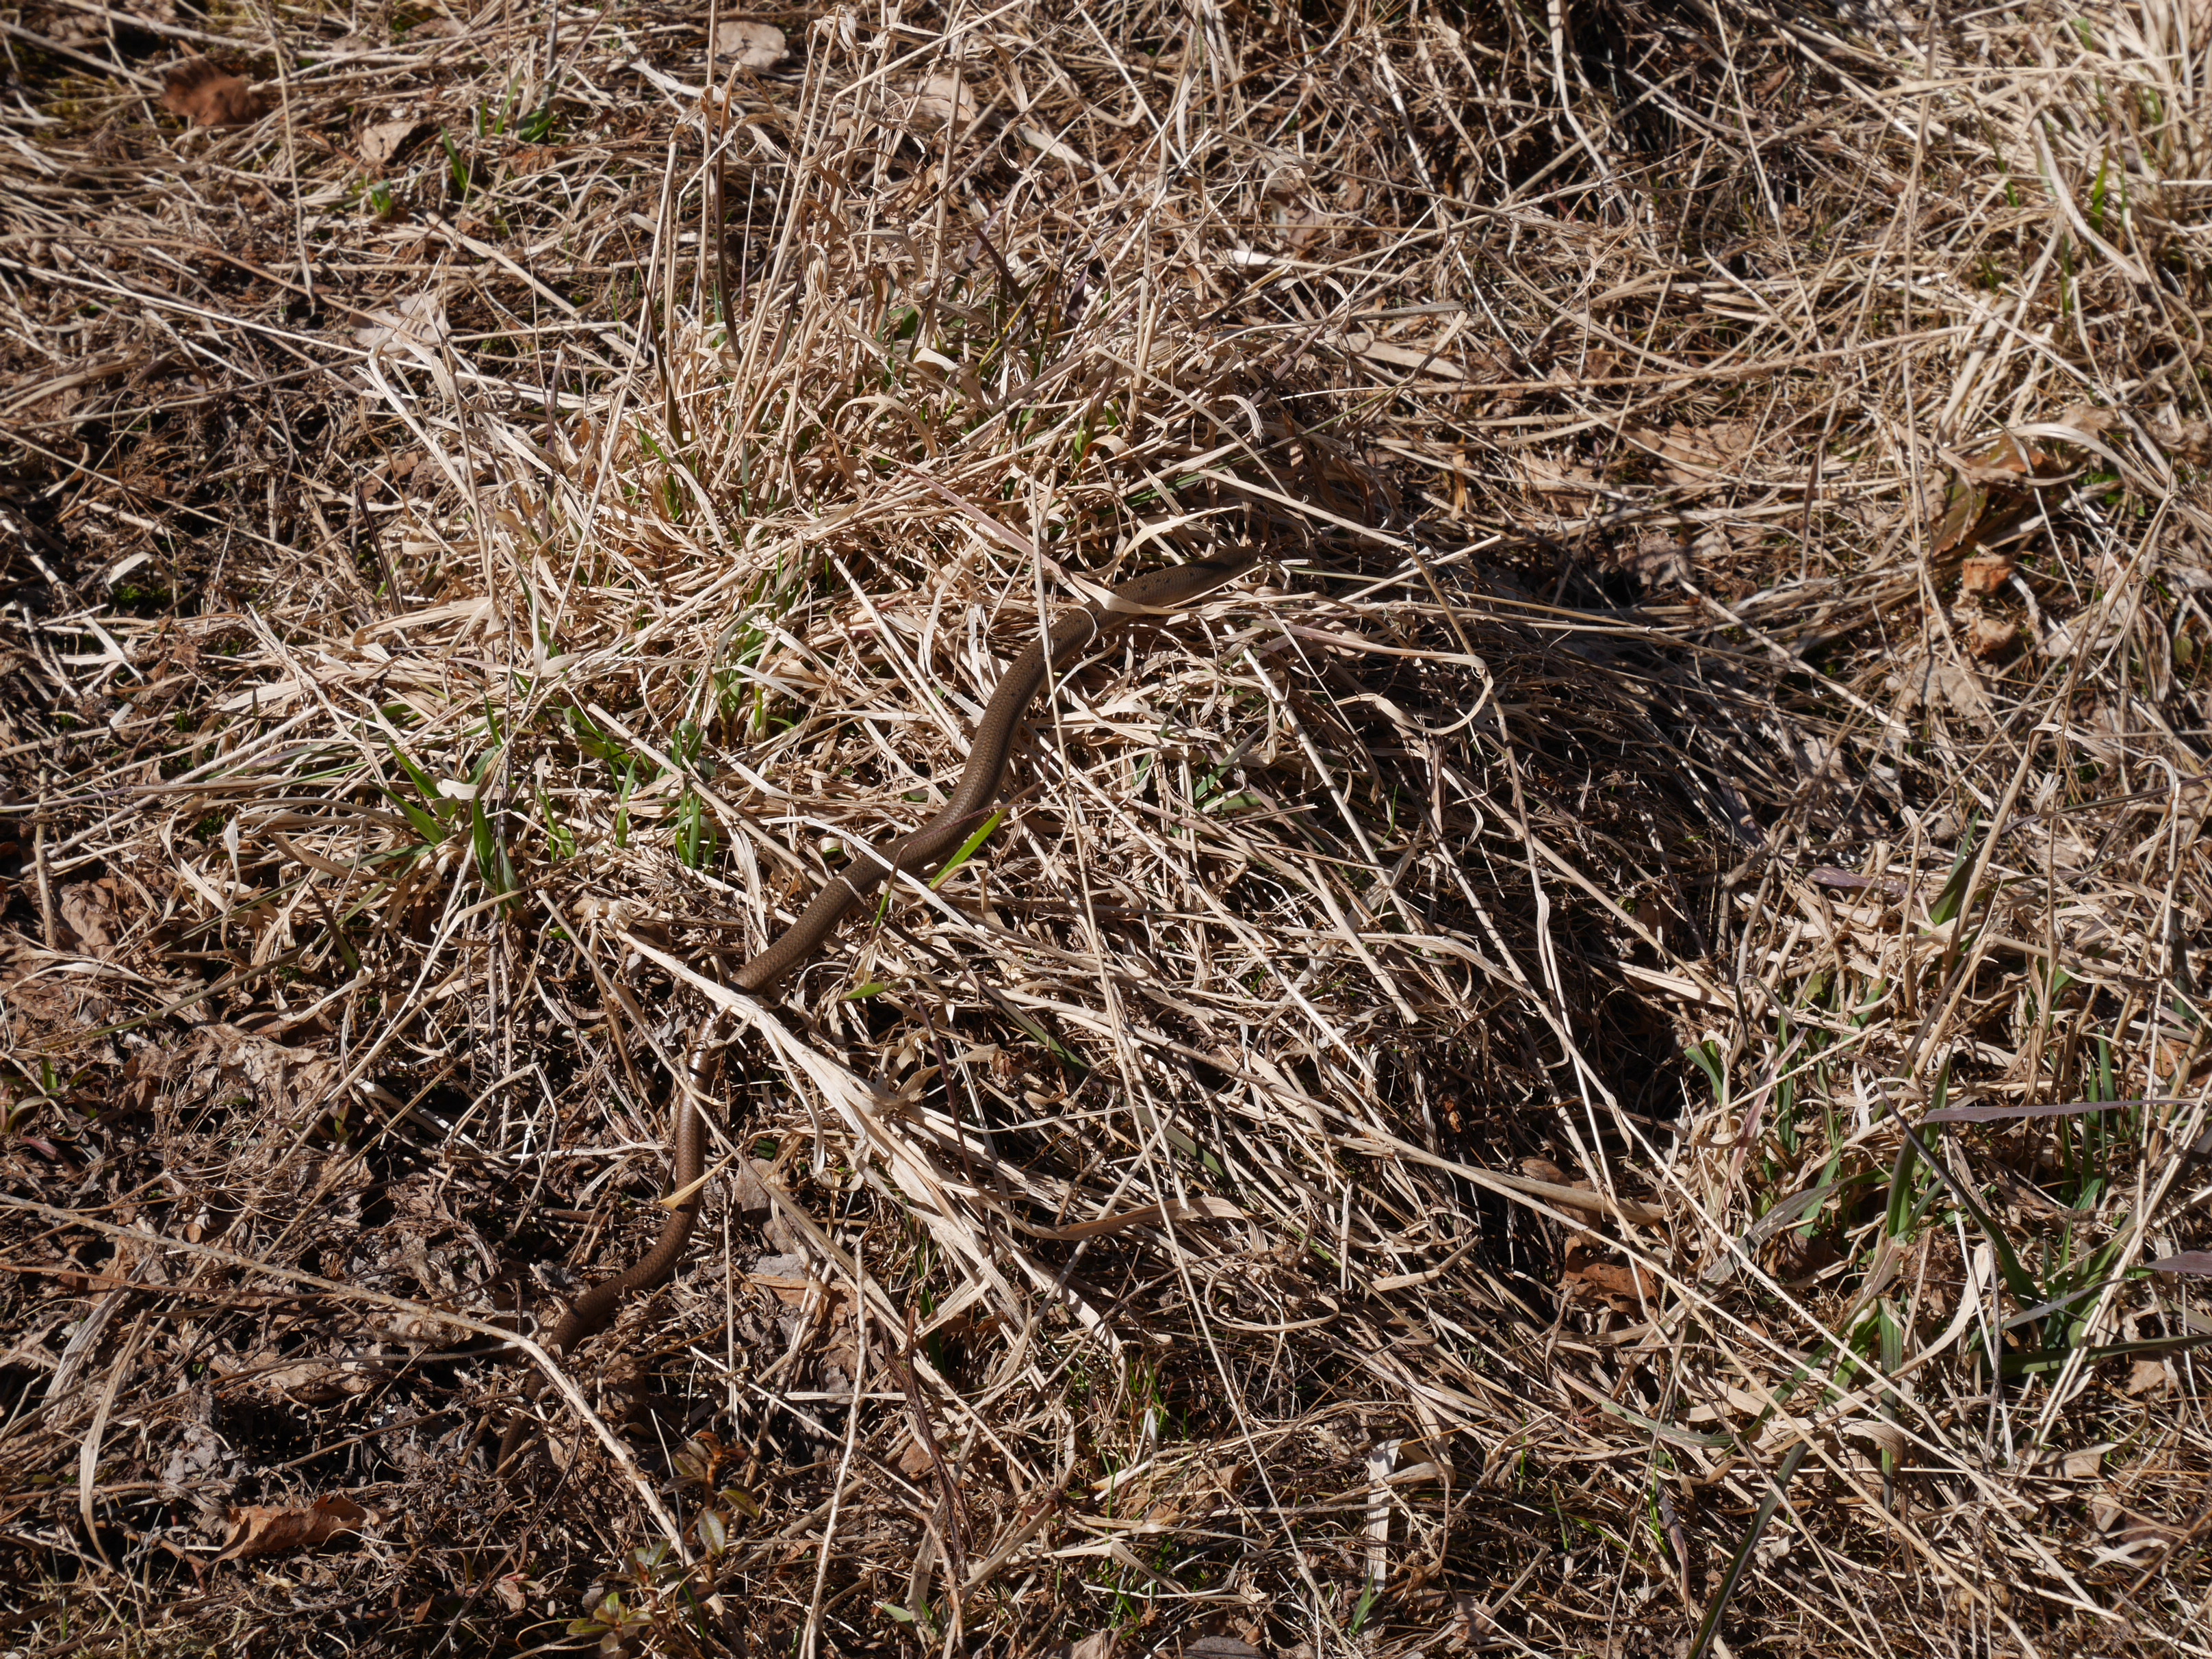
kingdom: Animalia
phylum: Chordata
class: Squamata
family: Anguidae
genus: Anguis
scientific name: Anguis colchica
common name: Slow worm
